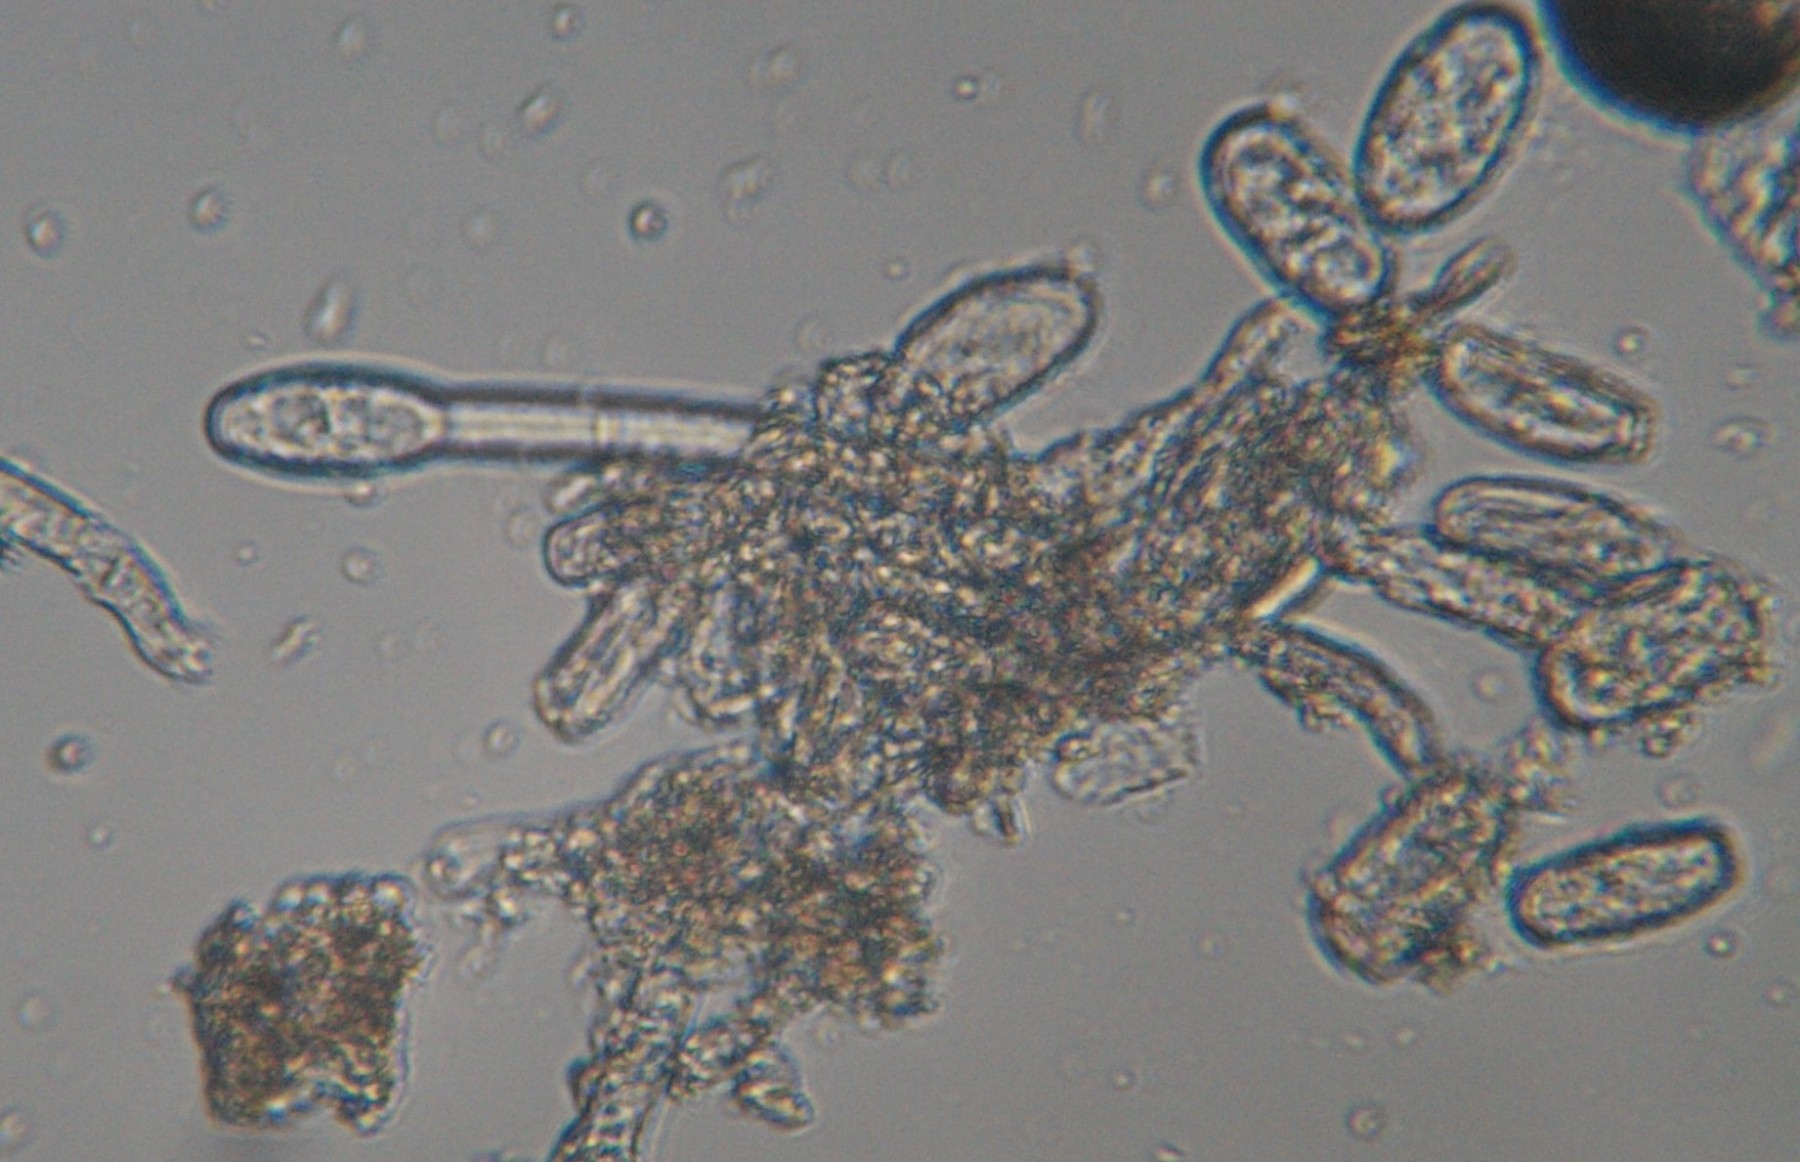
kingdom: Fungi
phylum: Ascomycota
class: Leotiomycetes
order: Helotiales
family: Erysiphaceae
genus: Erysiphe
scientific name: Erysiphe symphoricarpi
